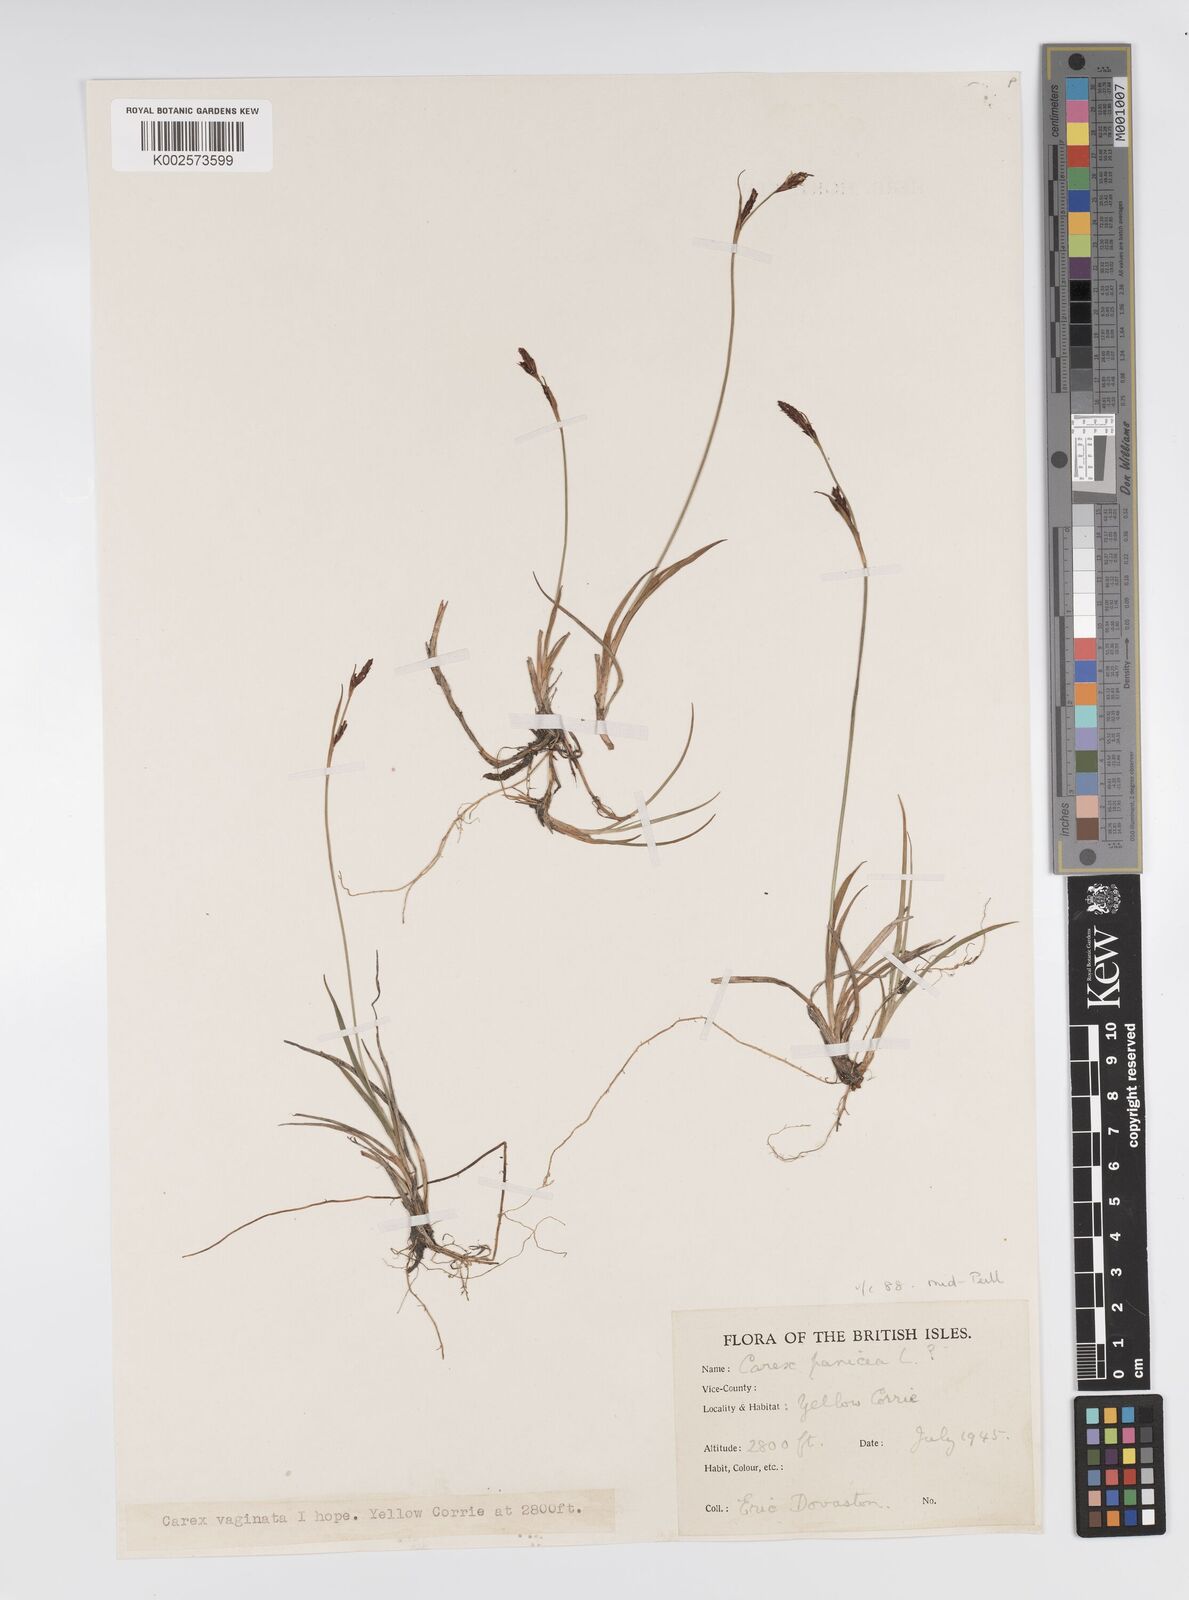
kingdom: Plantae
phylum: Tracheophyta
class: Liliopsida
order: Poales
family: Cyperaceae
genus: Carex
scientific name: Carex panicea
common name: Carnation sedge
